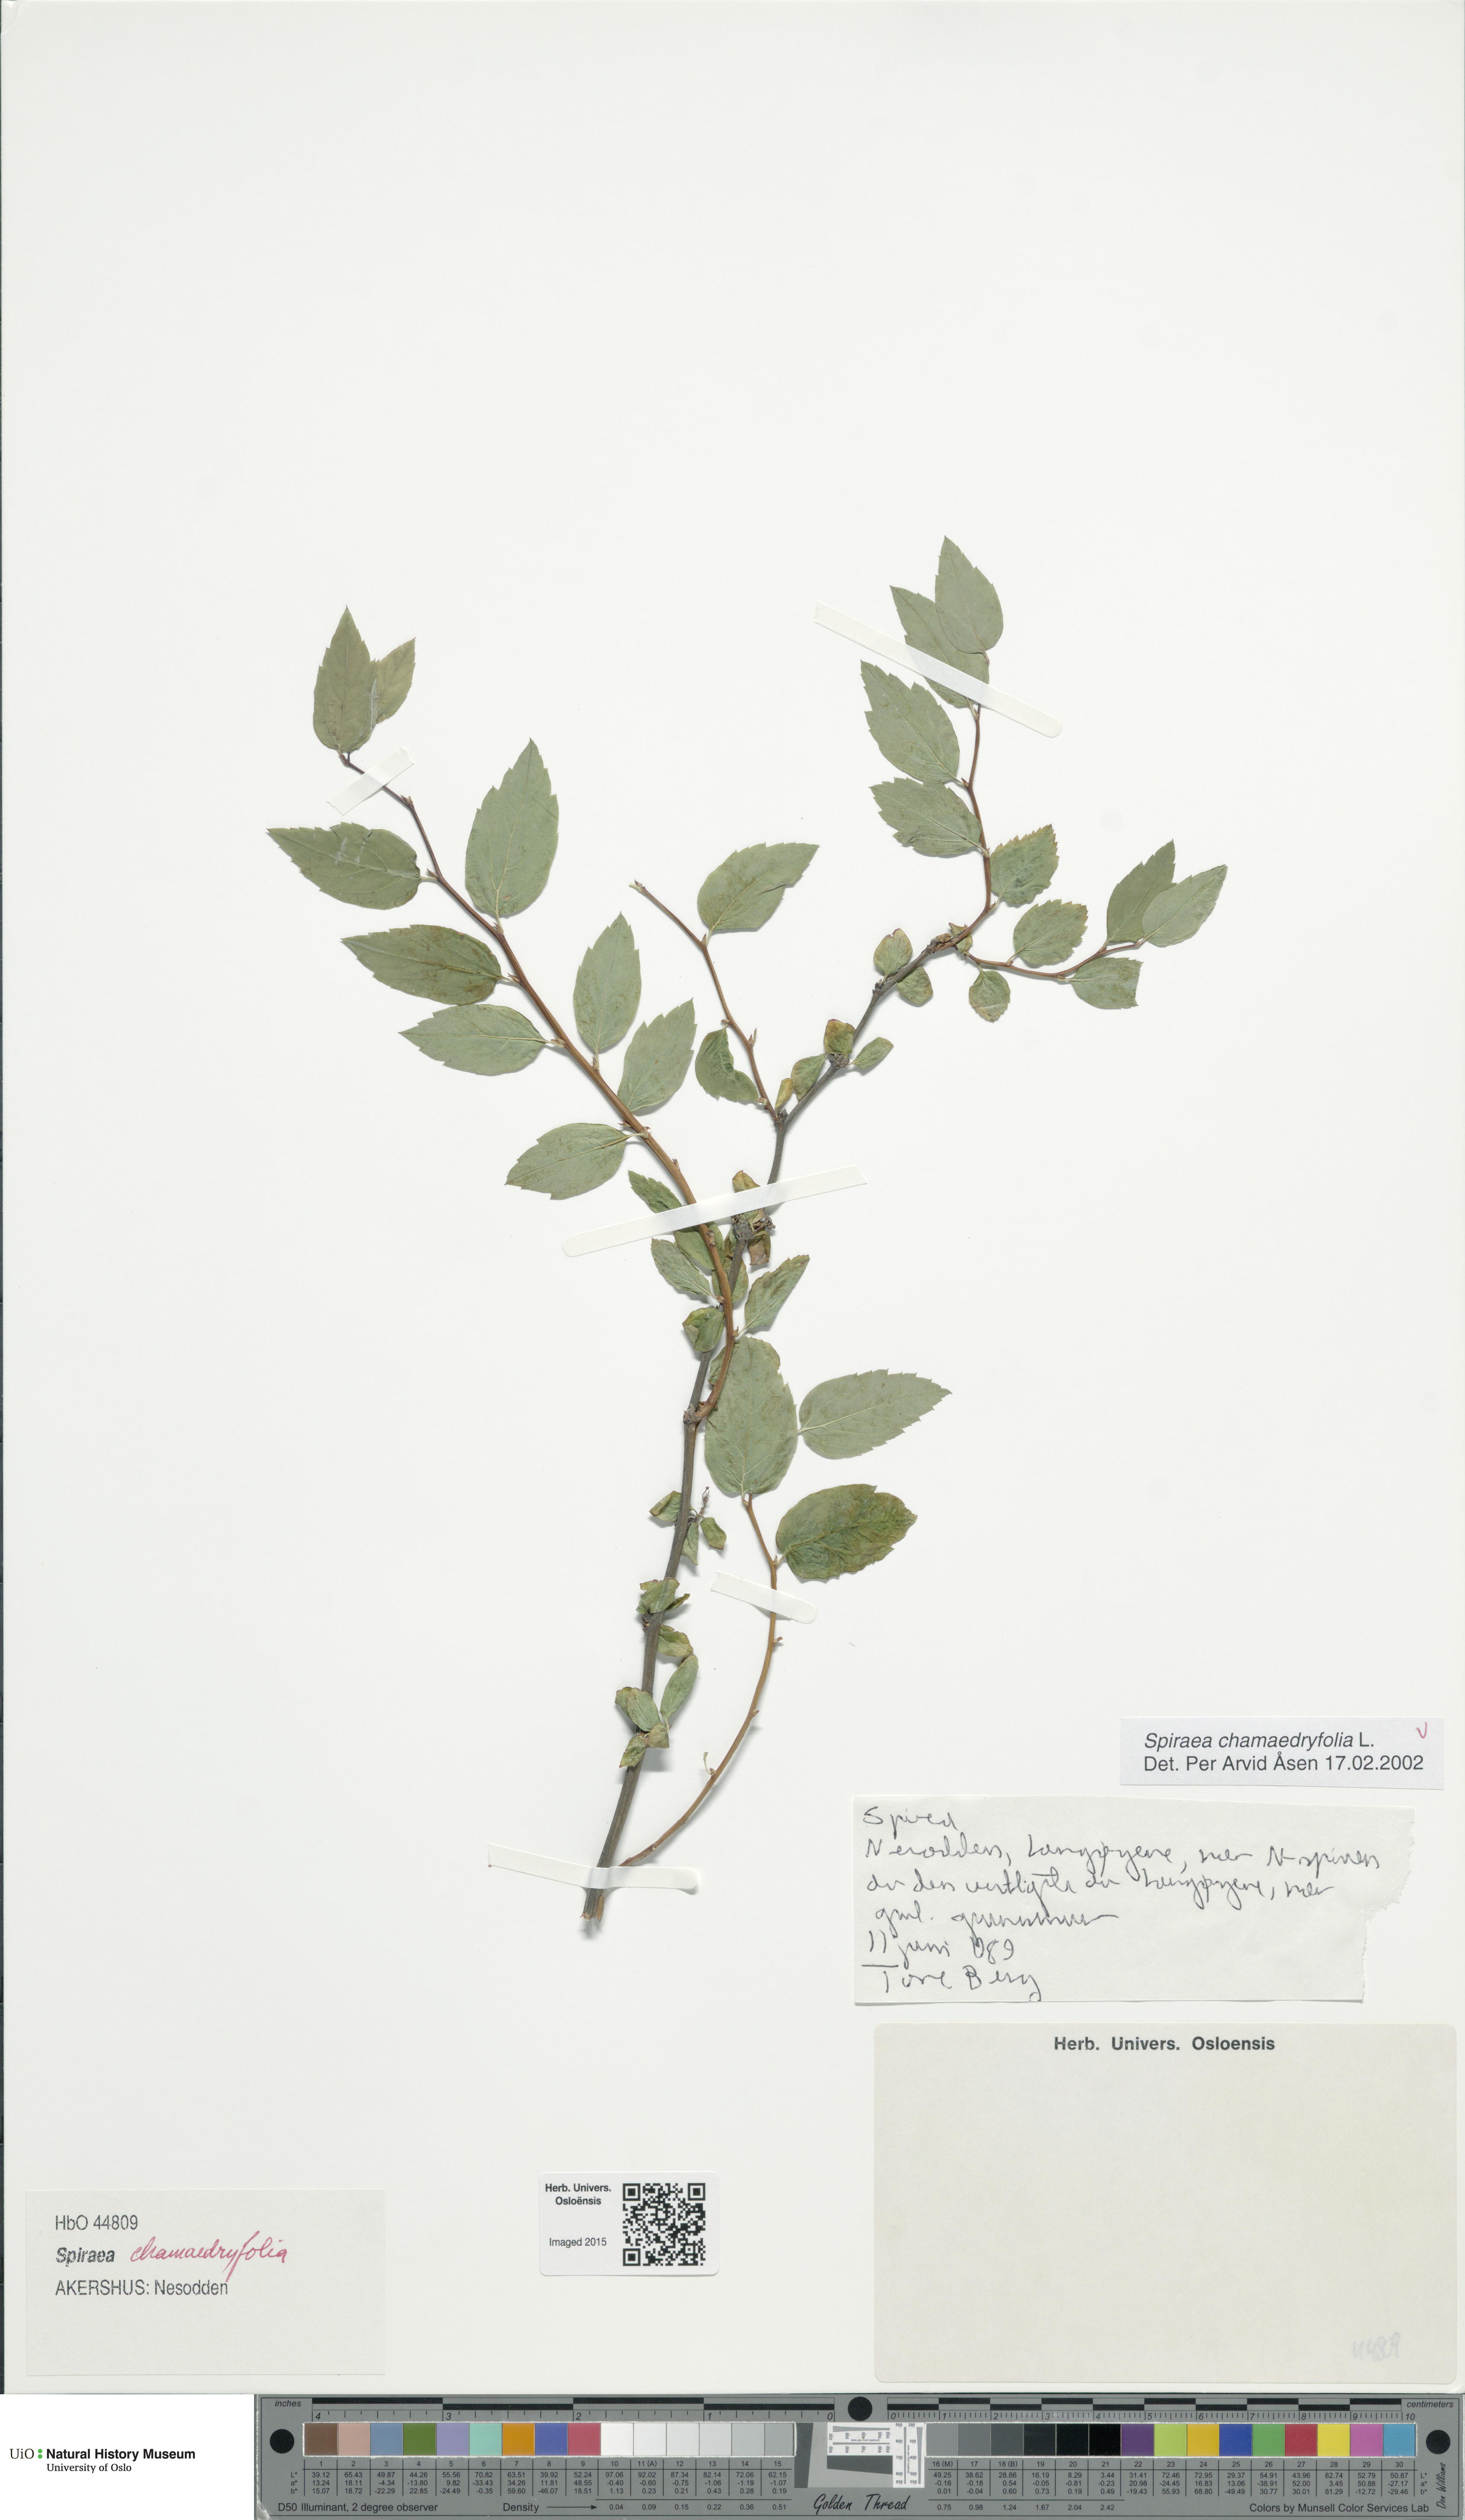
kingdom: Plantae
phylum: Tracheophyta
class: Magnoliopsida
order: Rosales
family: Rosaceae
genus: Spiraea
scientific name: Spiraea chamaedryfolia
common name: Elm-leaved spiraea
